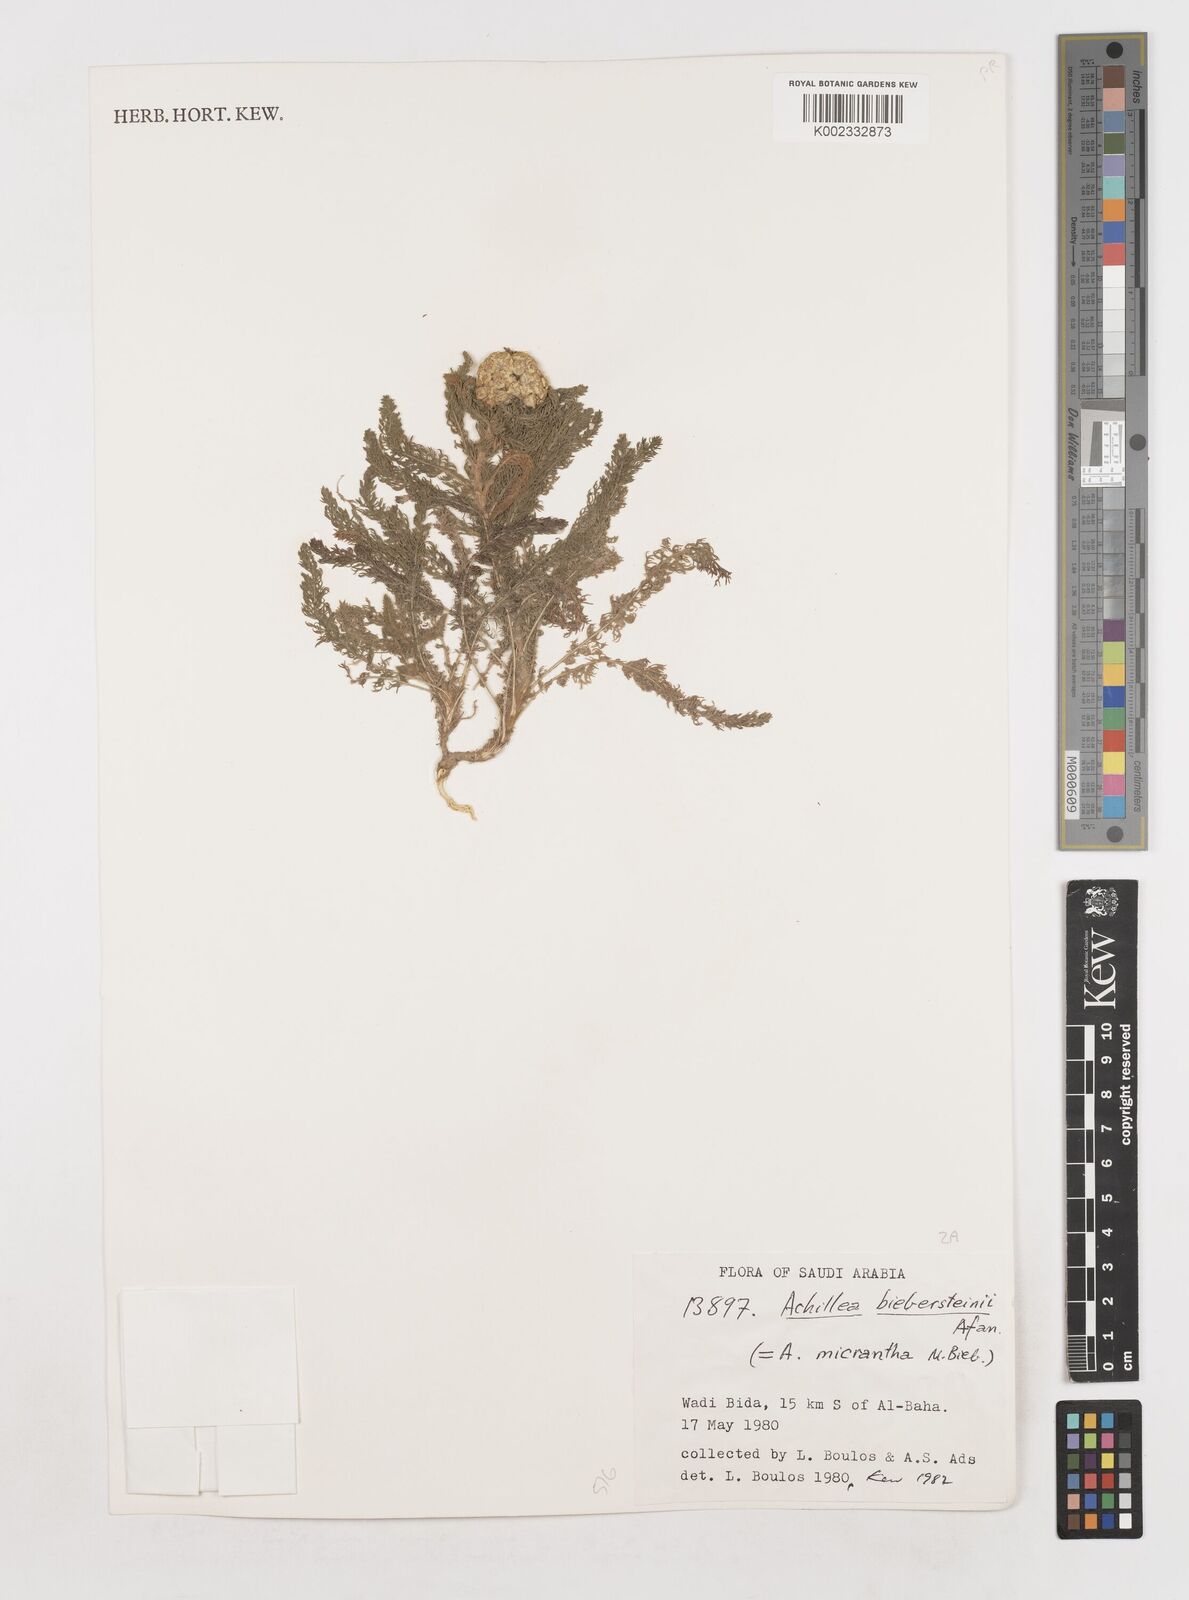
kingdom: Plantae
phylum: Tracheophyta
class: Magnoliopsida
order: Asterales
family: Asteraceae
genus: Achillea
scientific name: Achillea arabica
